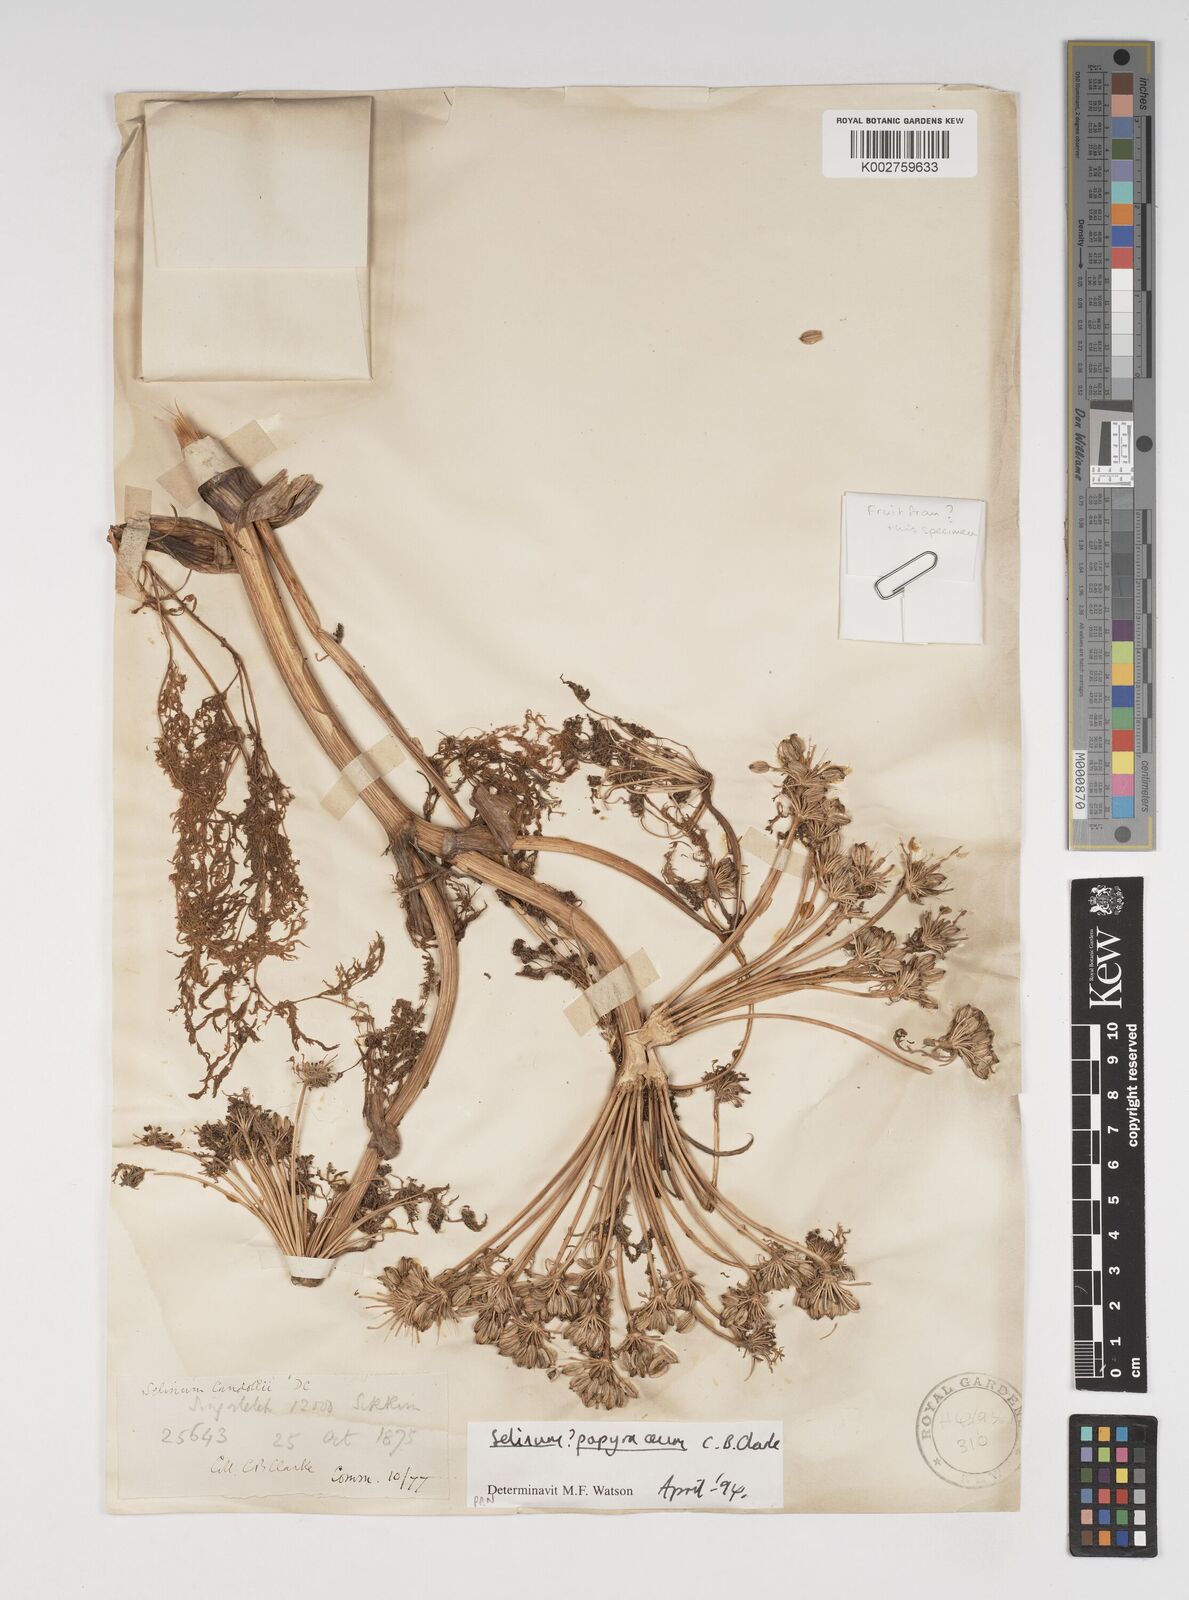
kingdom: Plantae
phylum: Tracheophyta
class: Magnoliopsida
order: Apiales
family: Apiaceae
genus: Conioselinum
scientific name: Conioselinum tataricum
